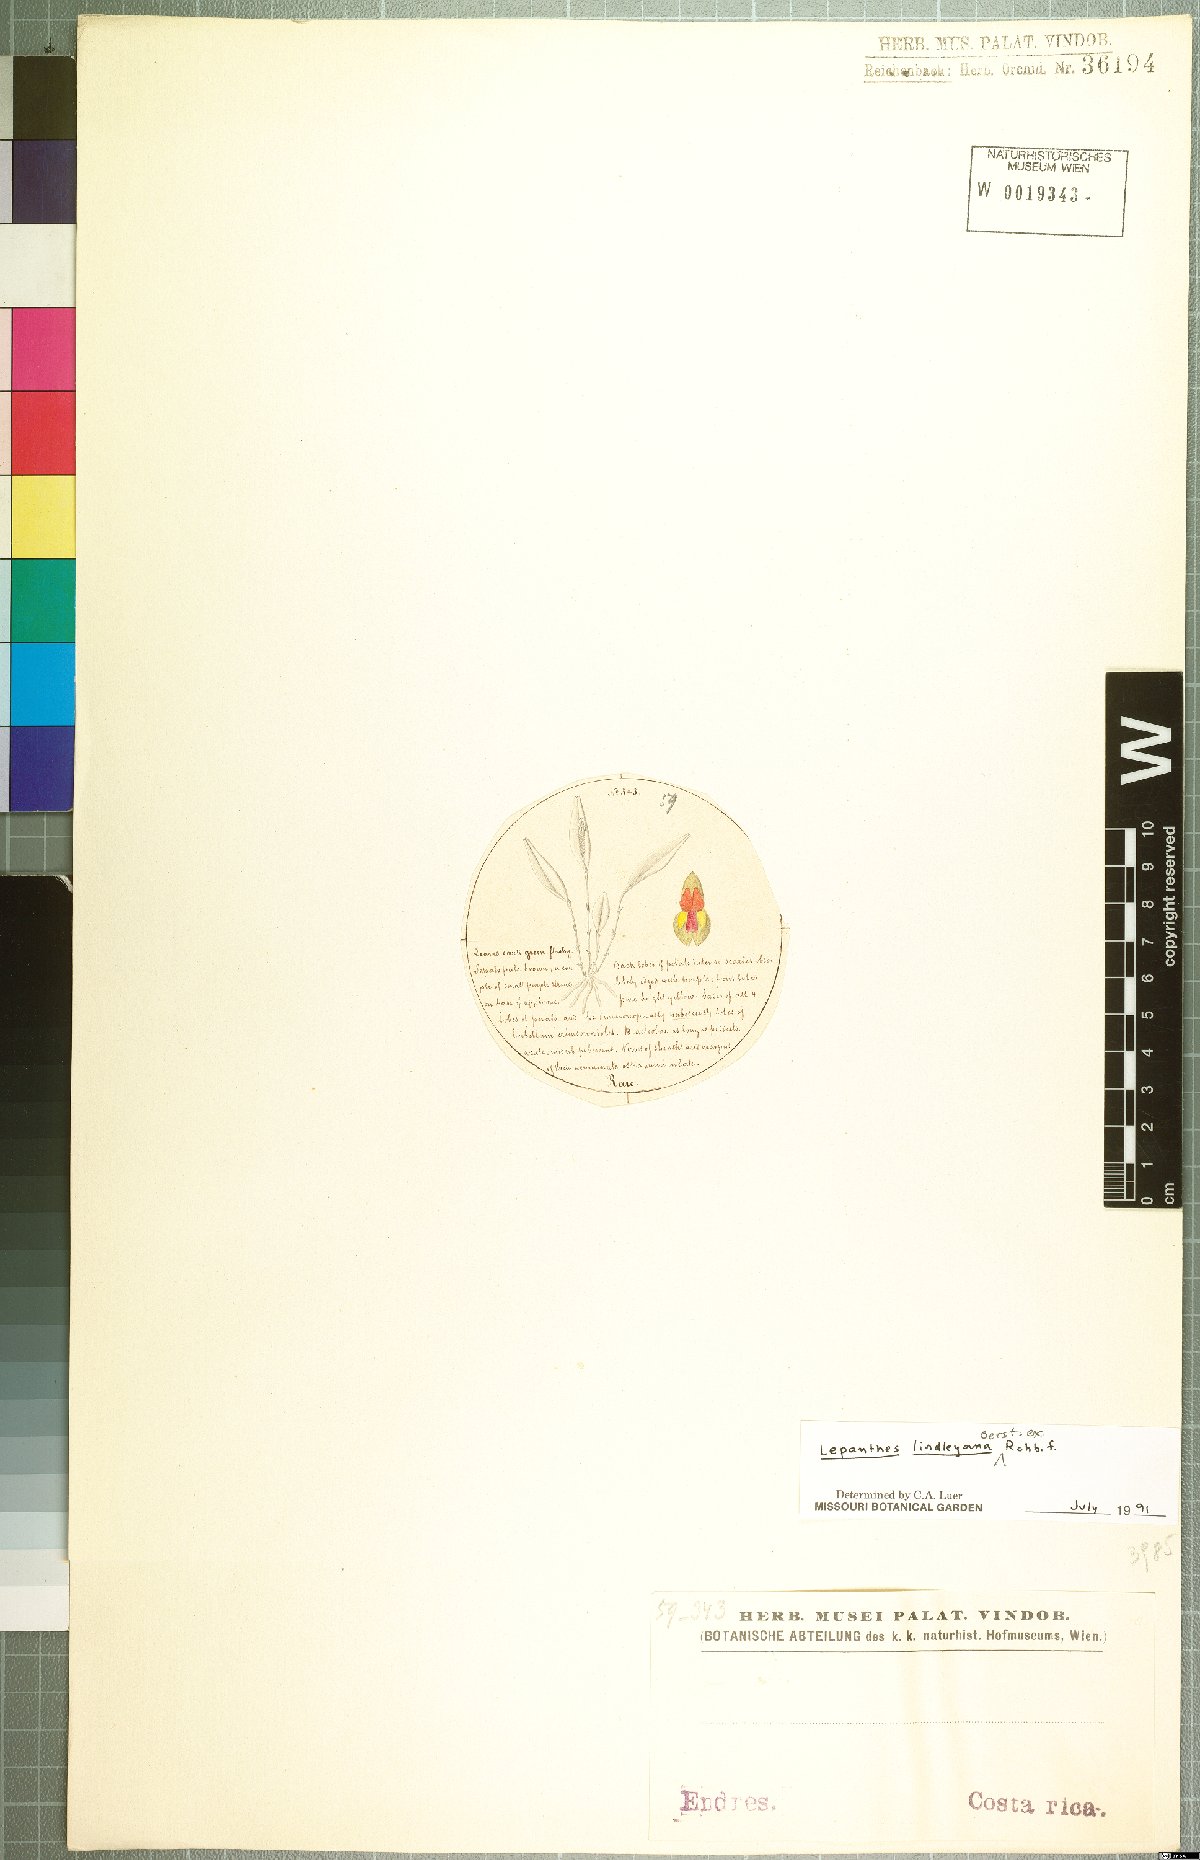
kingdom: Plantae
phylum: Tracheophyta
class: Liliopsida
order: Asparagales
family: Orchidaceae
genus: Lepanthes
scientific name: Lepanthes lindleyana
